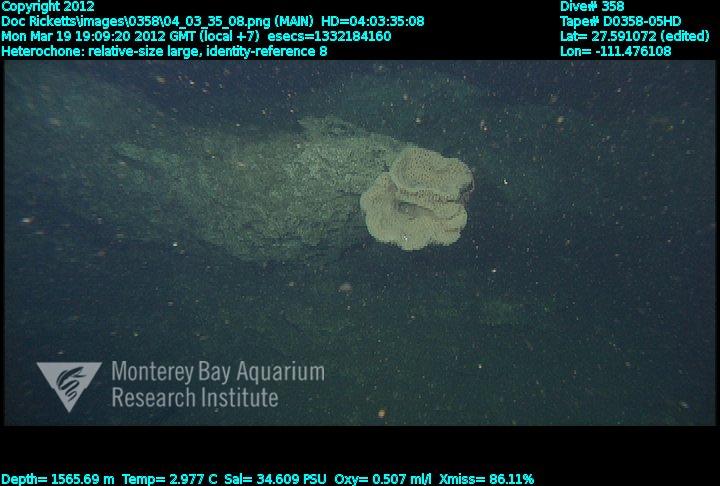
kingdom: Animalia
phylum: Porifera
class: Hexactinellida
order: Sceptrulophora
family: Aphrocallistidae
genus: Heterochone
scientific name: Heterochone
